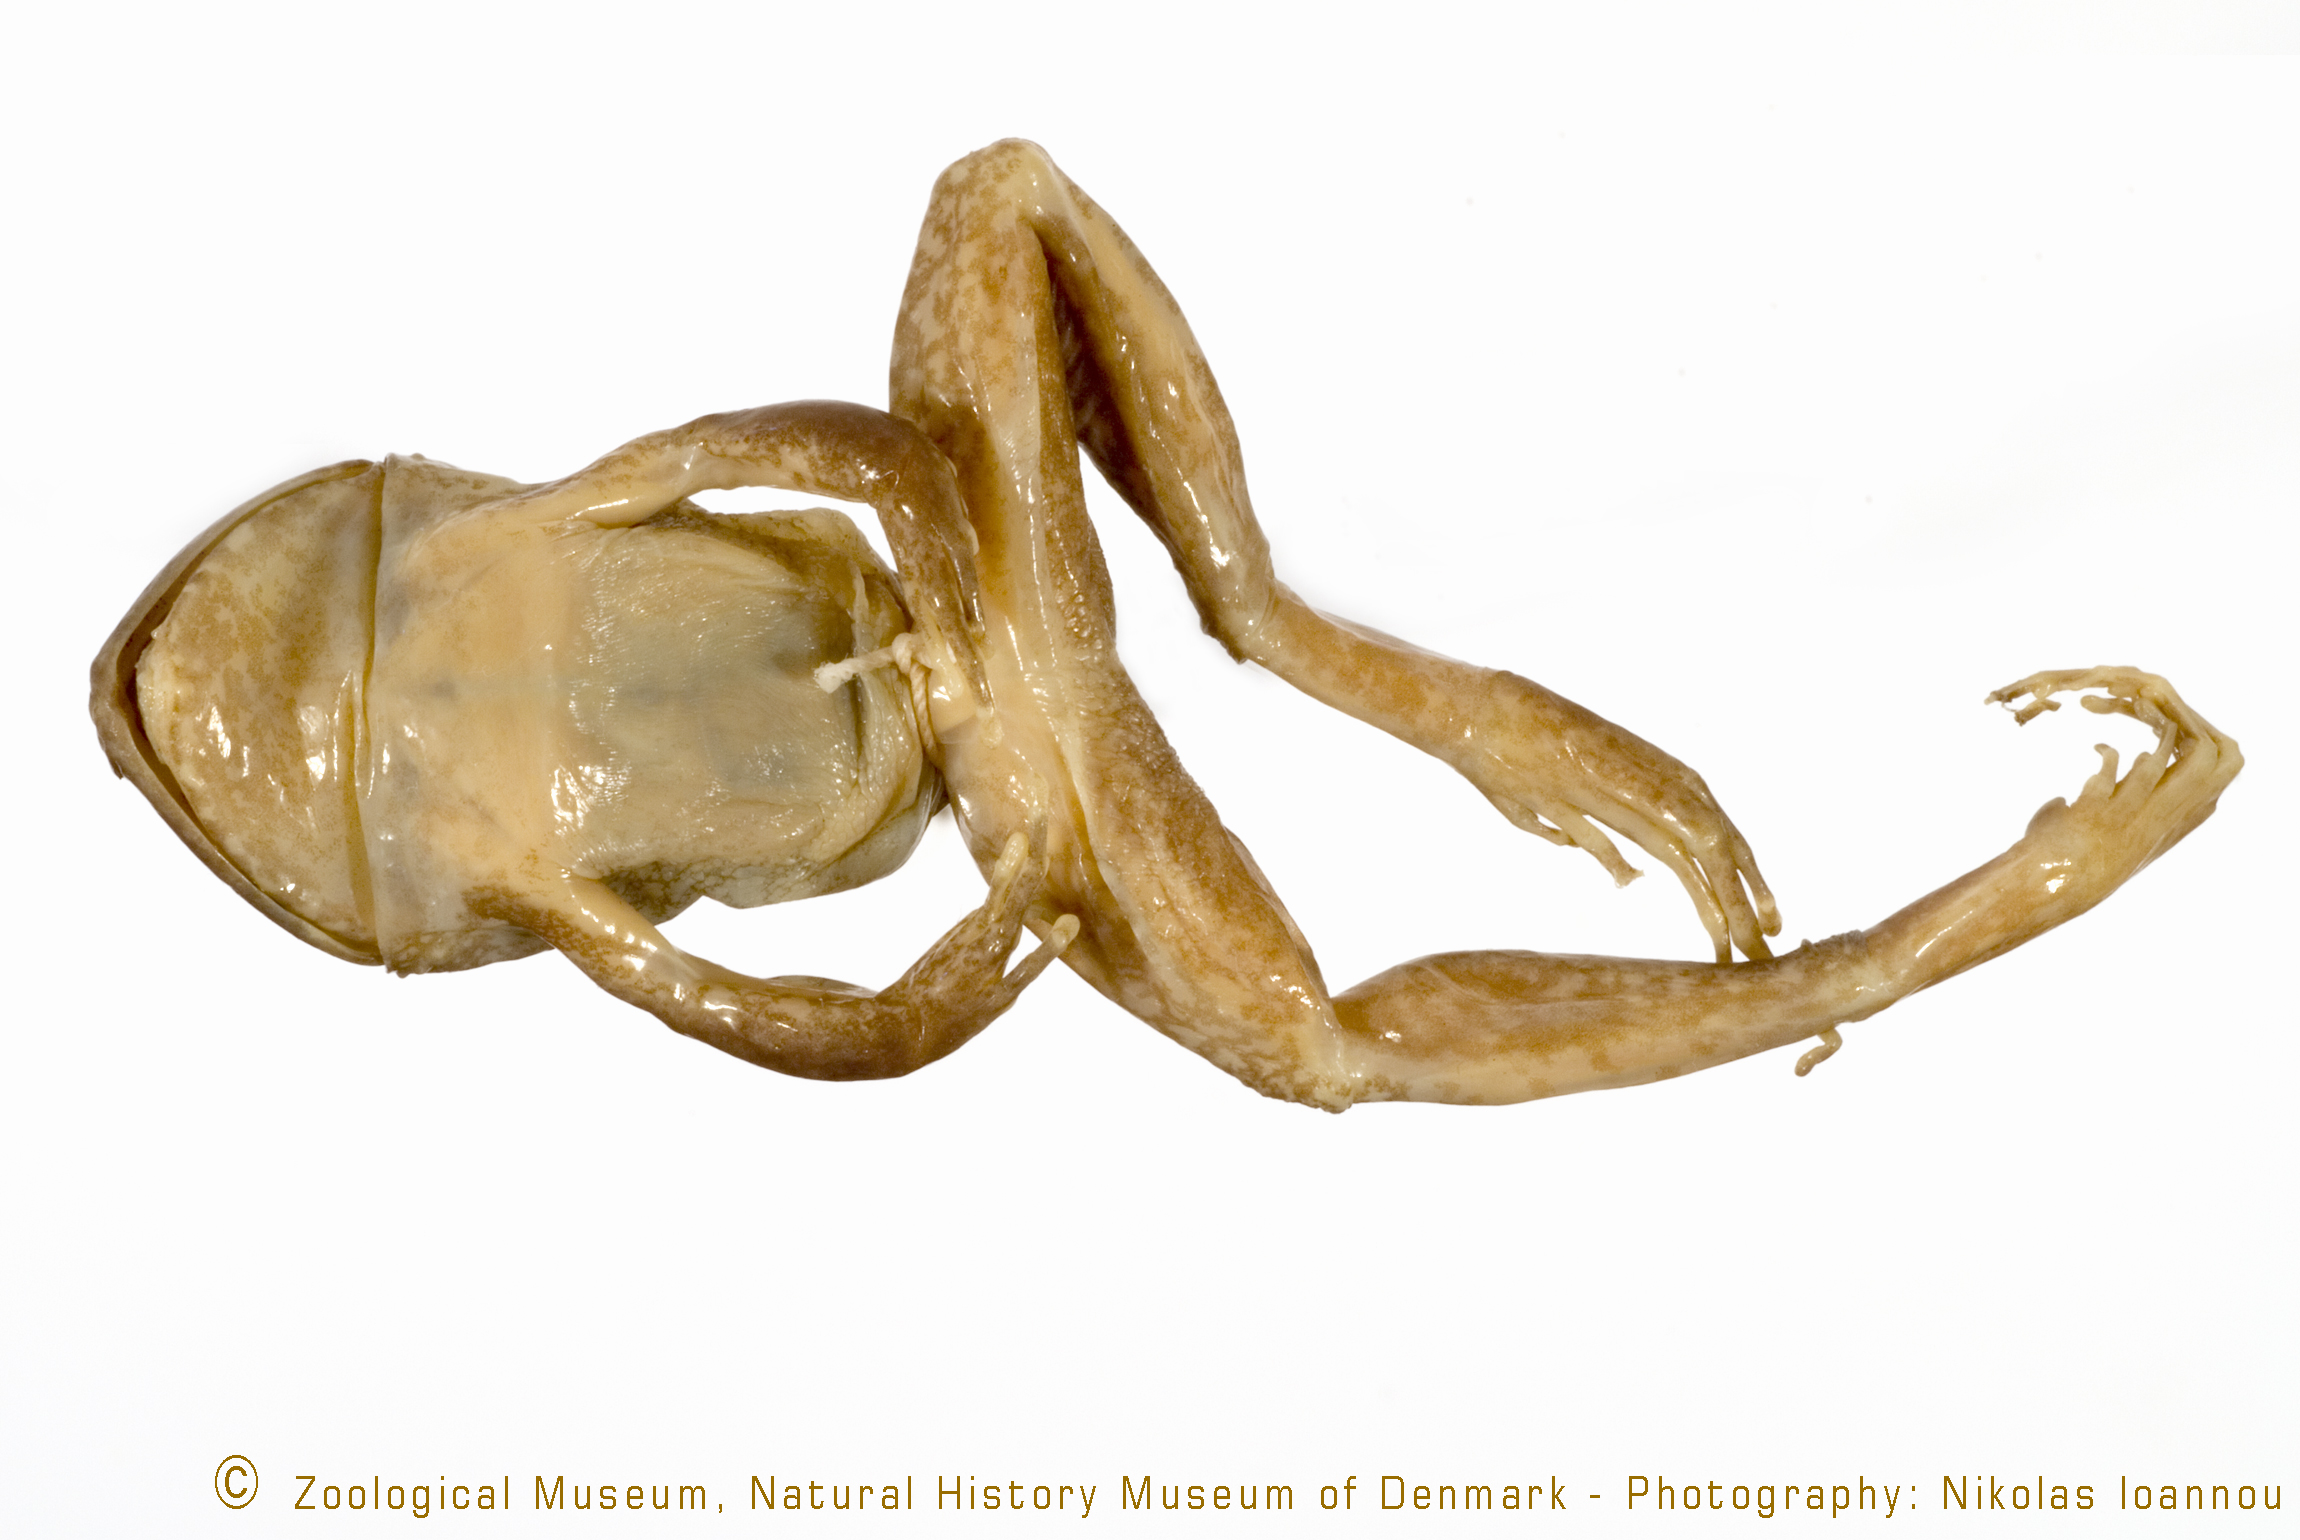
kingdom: Animalia
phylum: Chordata
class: Amphibia
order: Anura
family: Arthroleptidae
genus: Arthroleptis
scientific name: Arthroleptis tanneri
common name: Tanzania screeching frog
